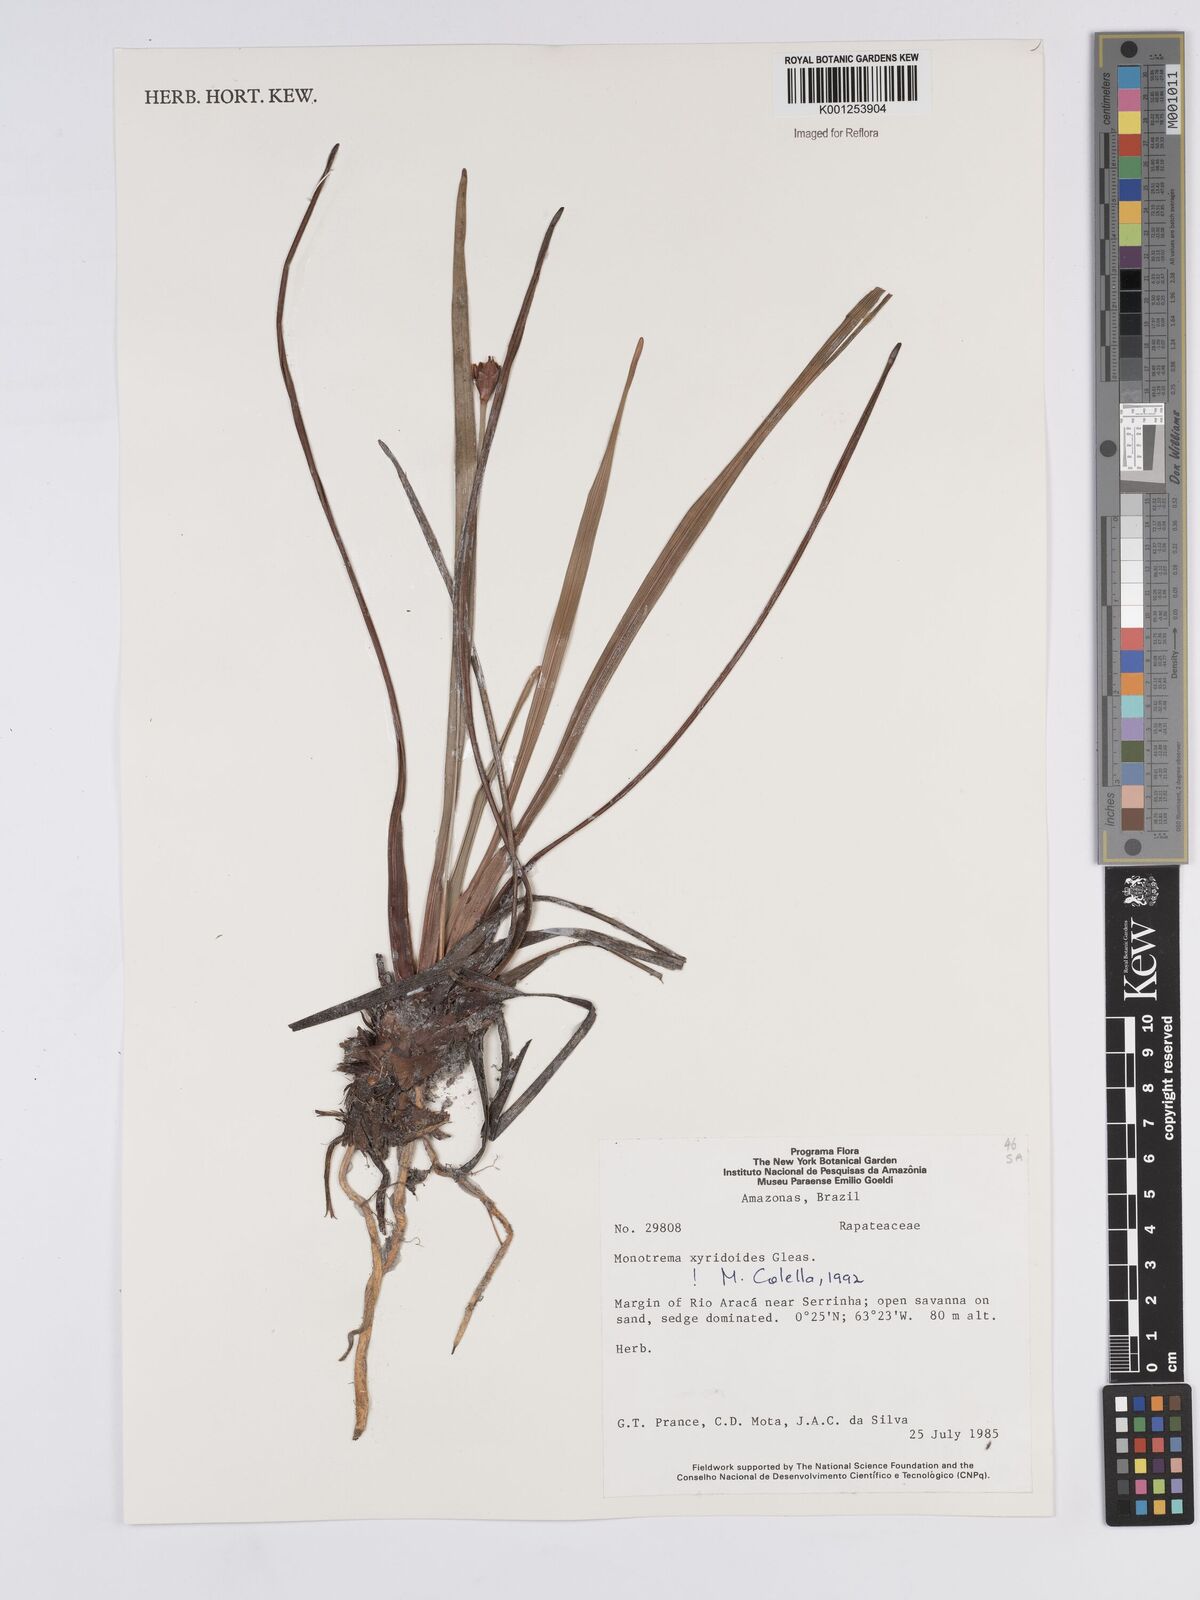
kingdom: Plantae
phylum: Tracheophyta
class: Liliopsida
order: Poales
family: Rapateaceae
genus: Monotrema
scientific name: Monotrema xyridoides
